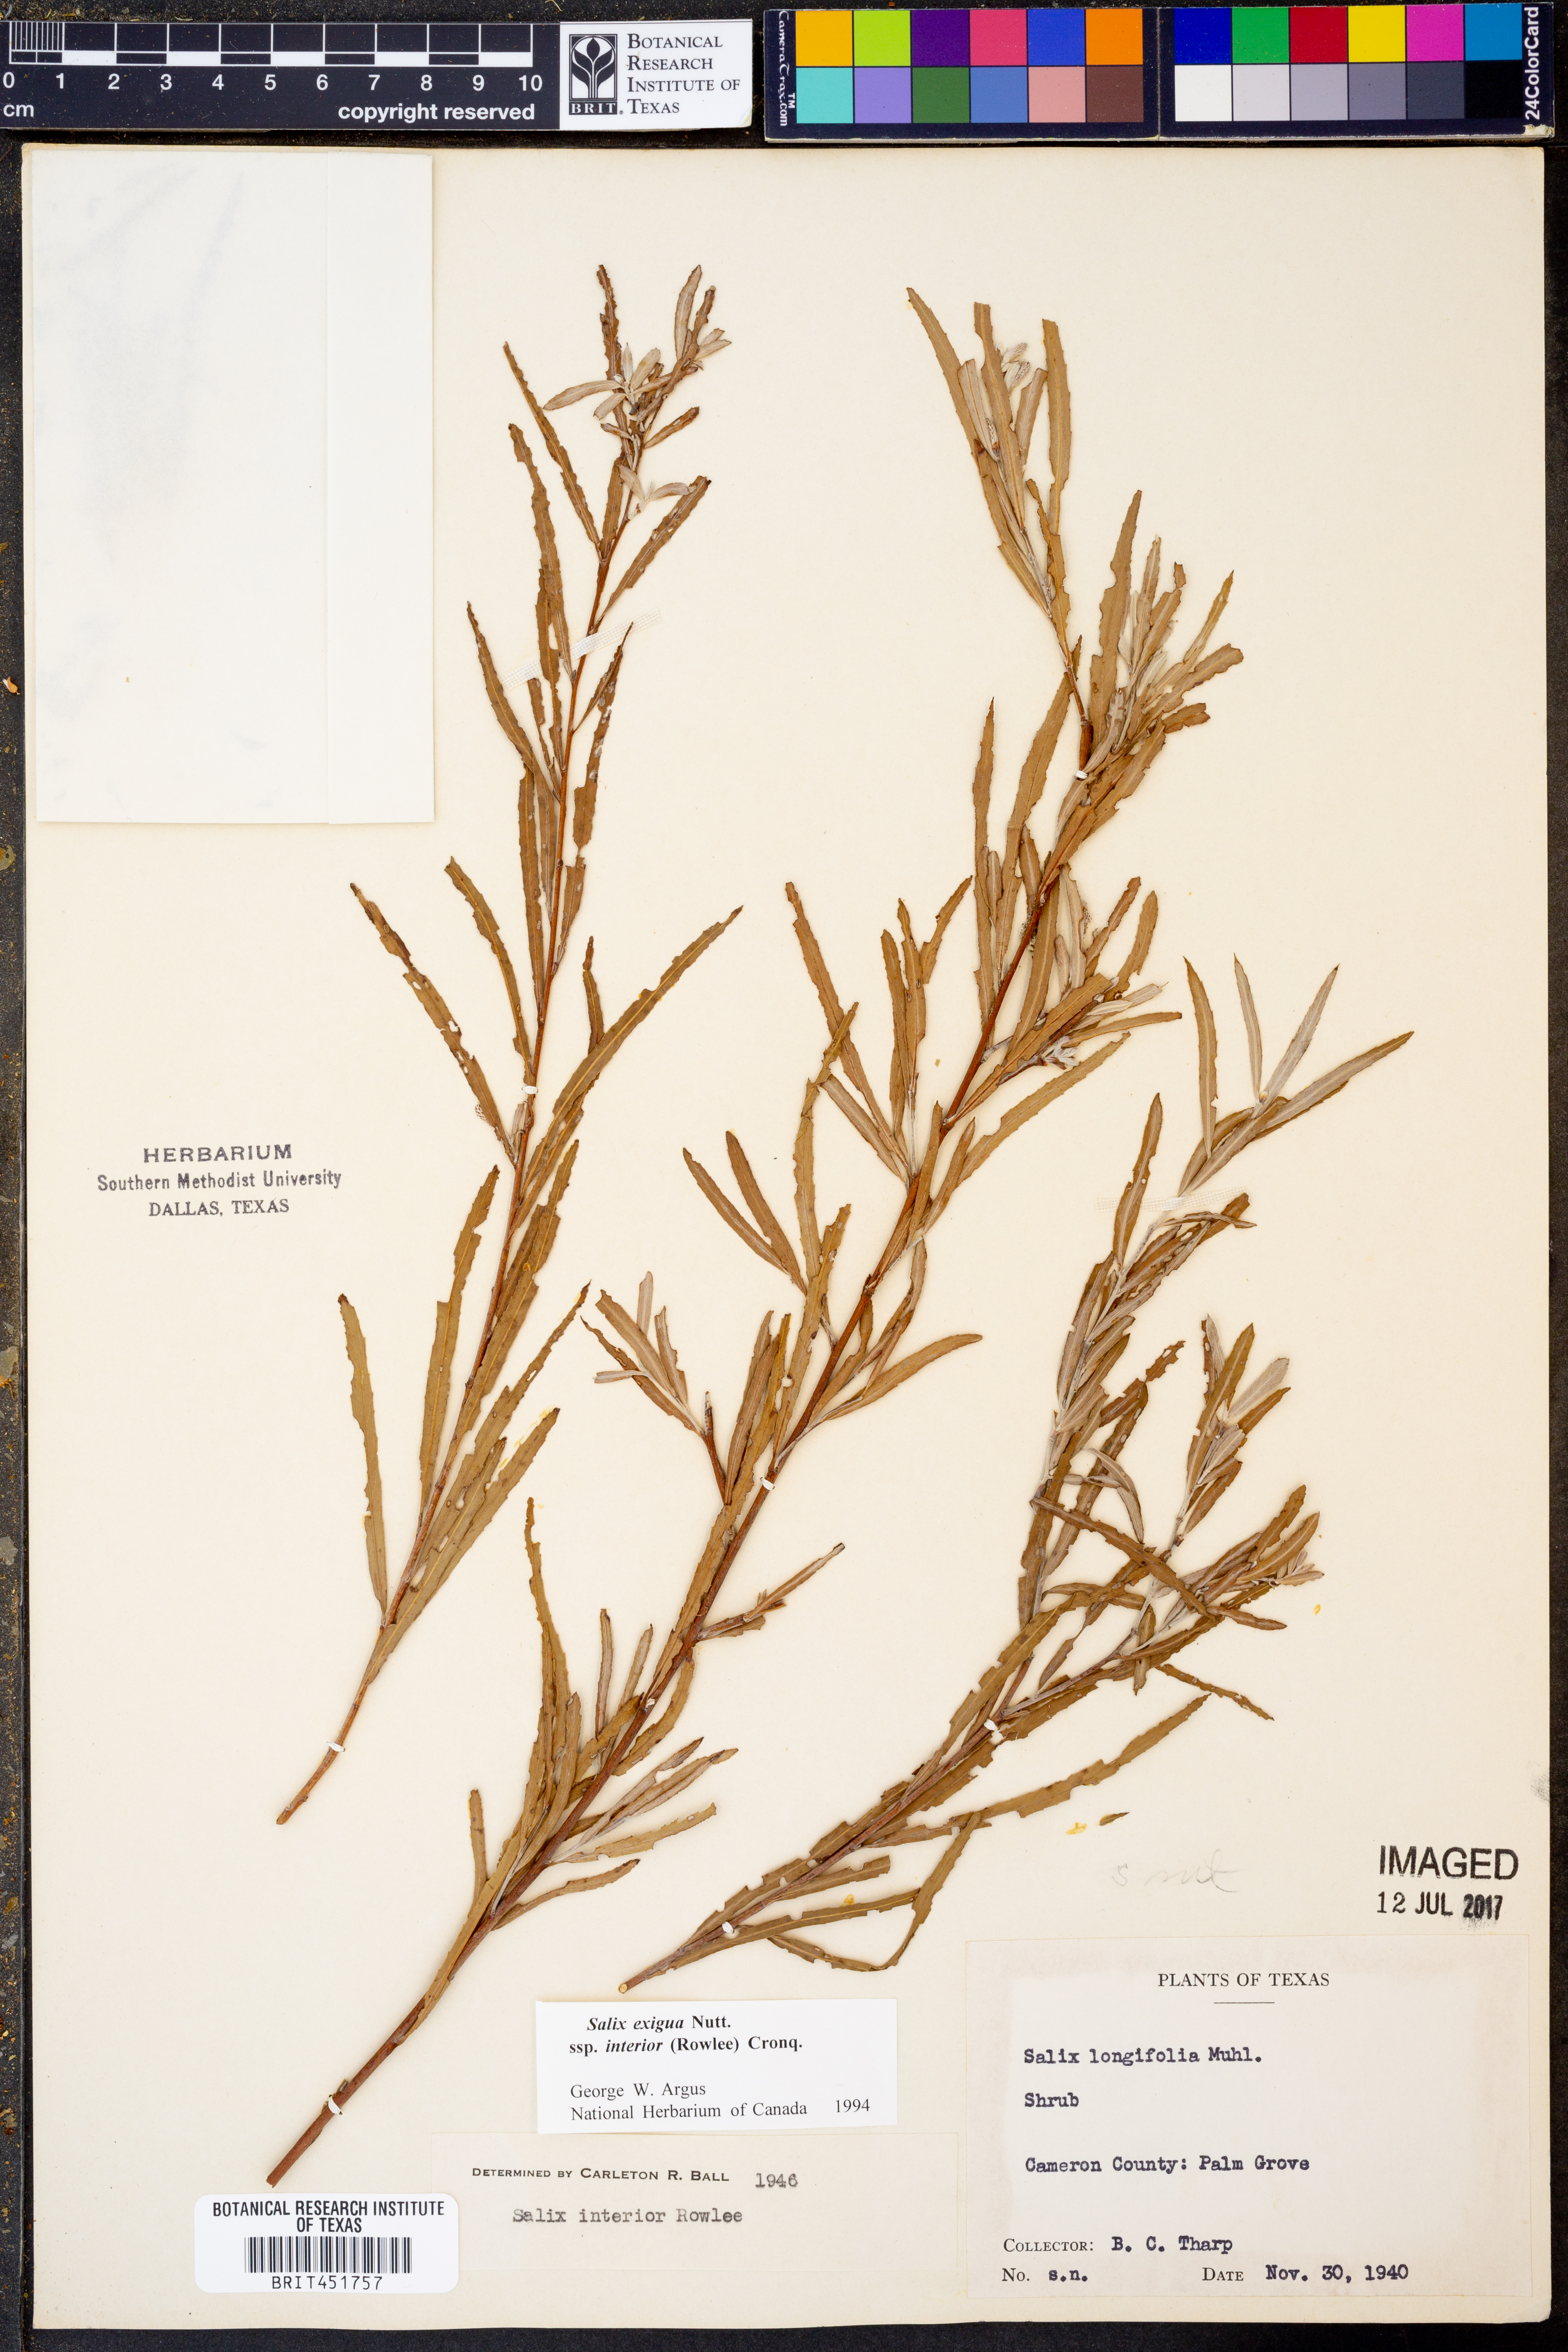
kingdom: Plantae
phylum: Tracheophyta
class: Magnoliopsida
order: Malpighiales
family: Salicaceae
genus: Salix
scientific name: Salix interior
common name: Sandbar willow
